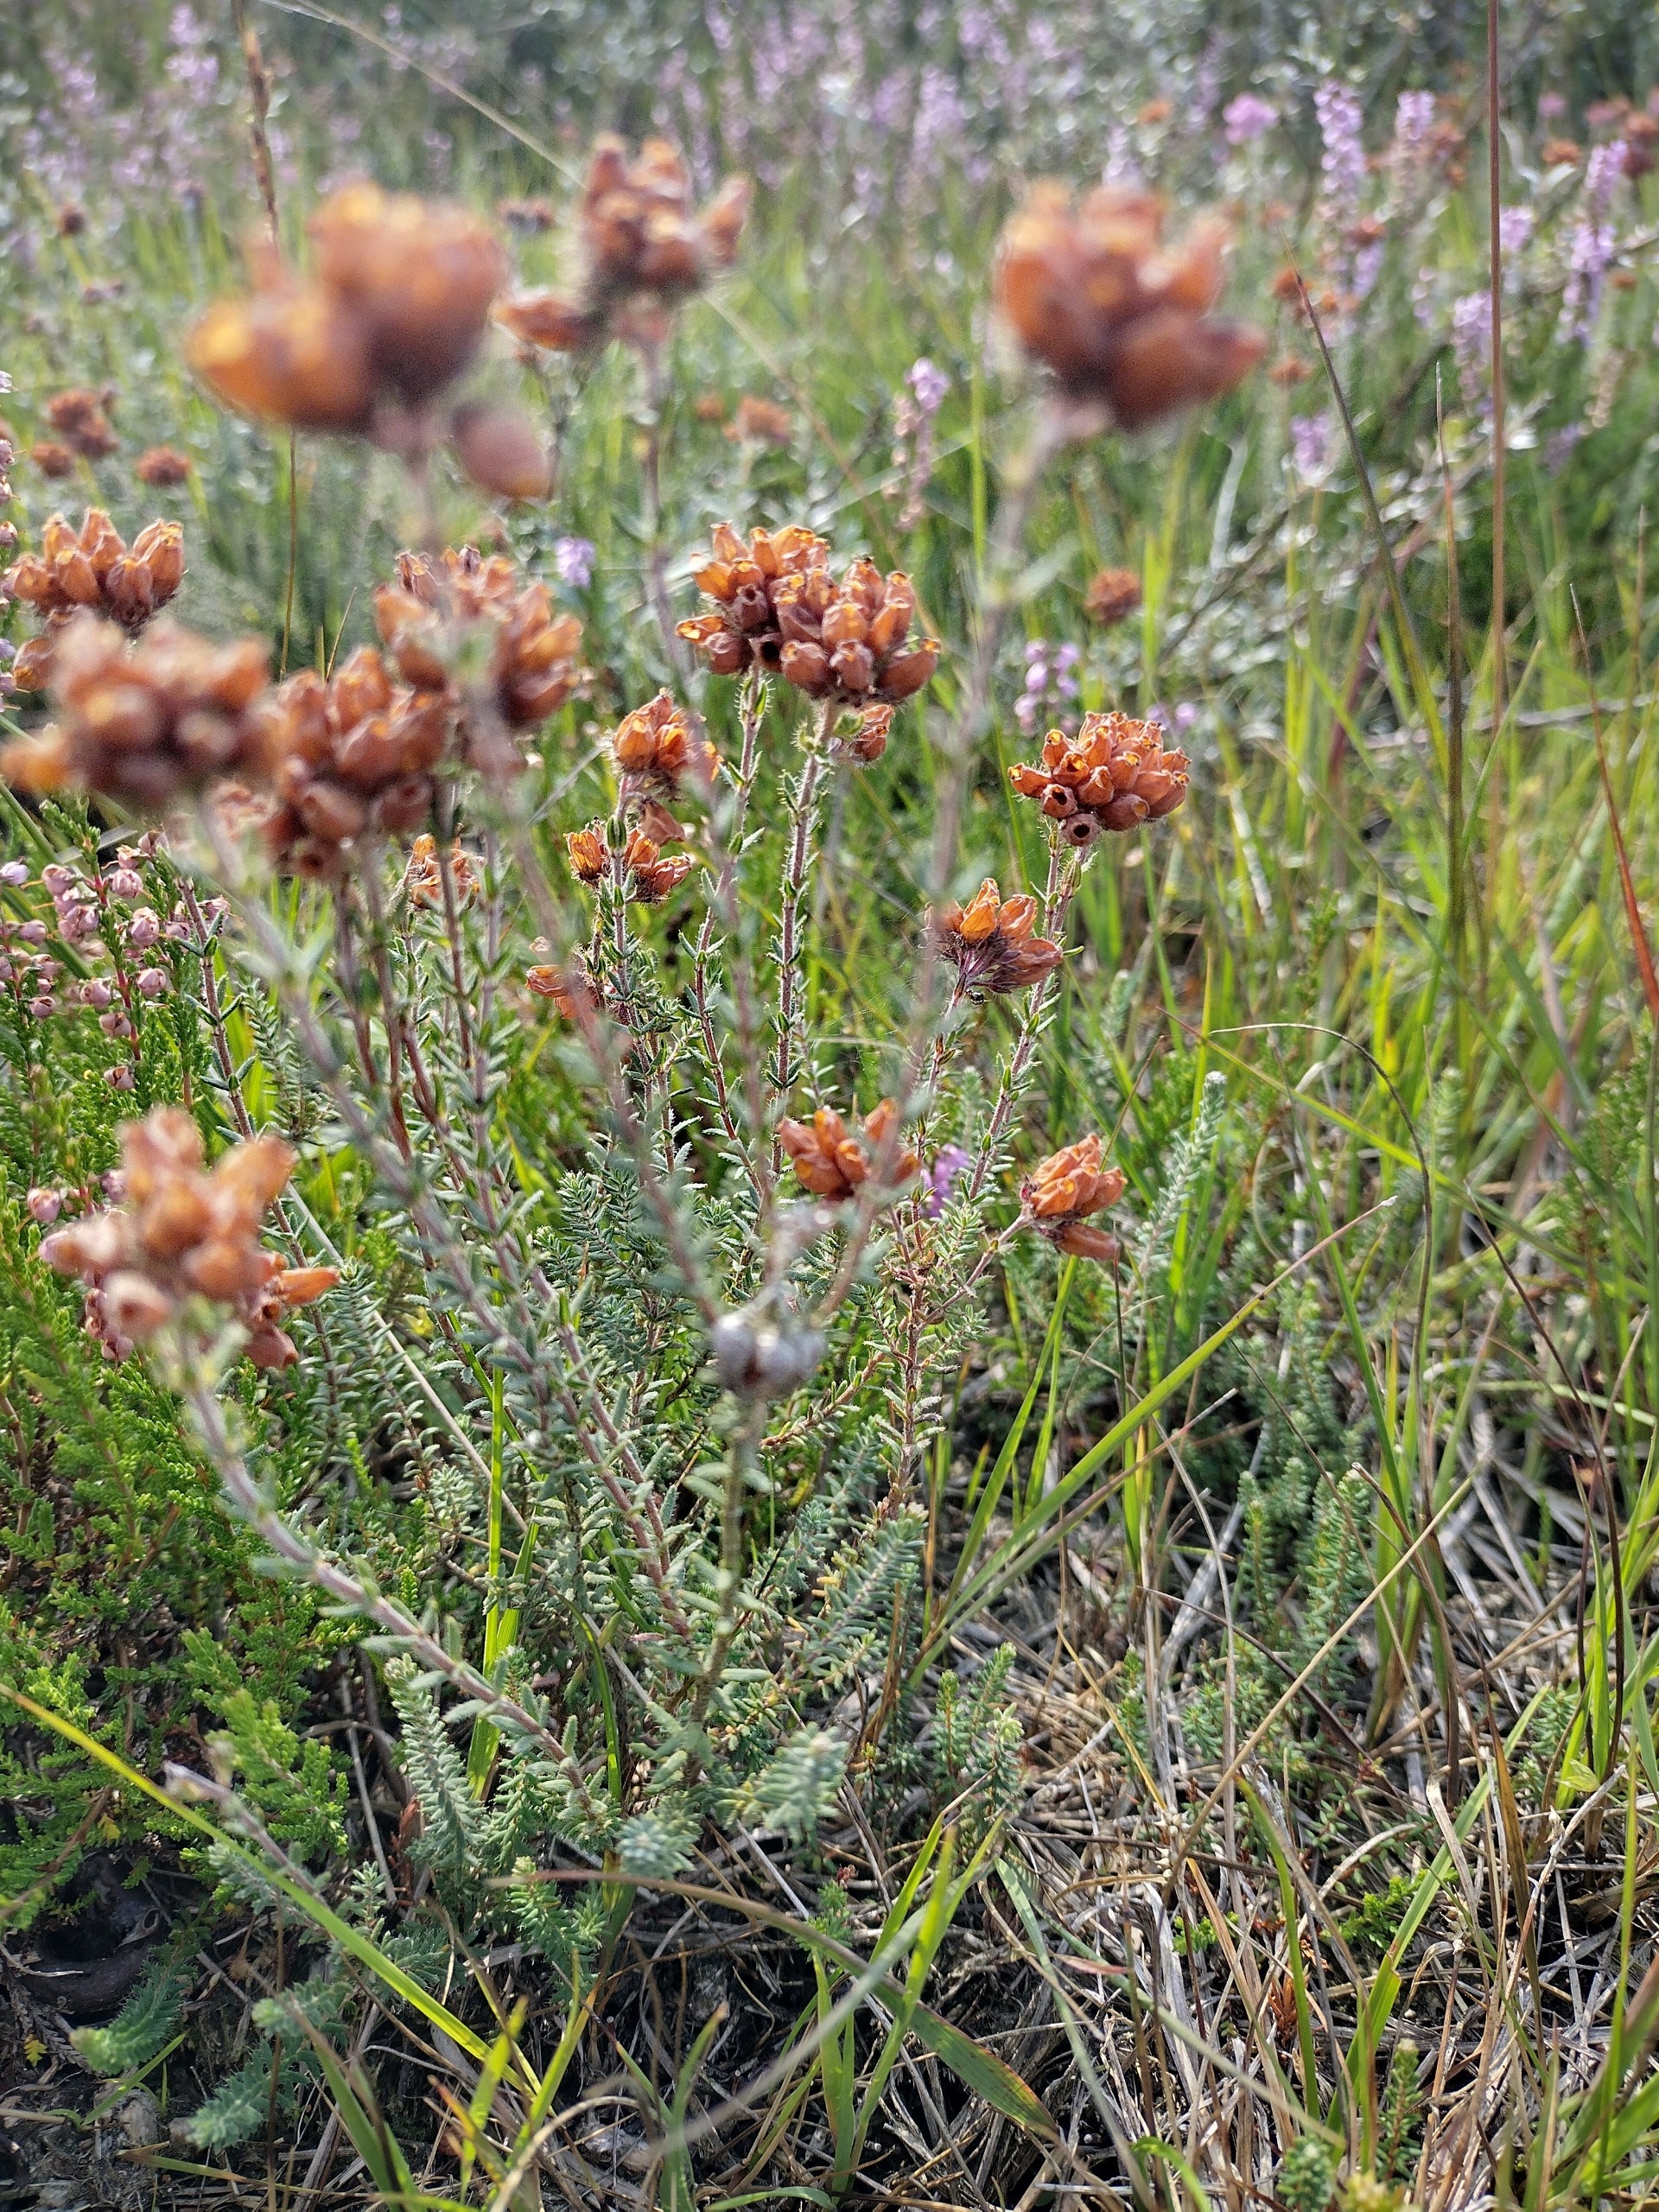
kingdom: Plantae
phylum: Tracheophyta
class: Magnoliopsida
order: Ericales
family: Ericaceae
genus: Erica
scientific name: Erica tetralix
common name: Klokkelyng
